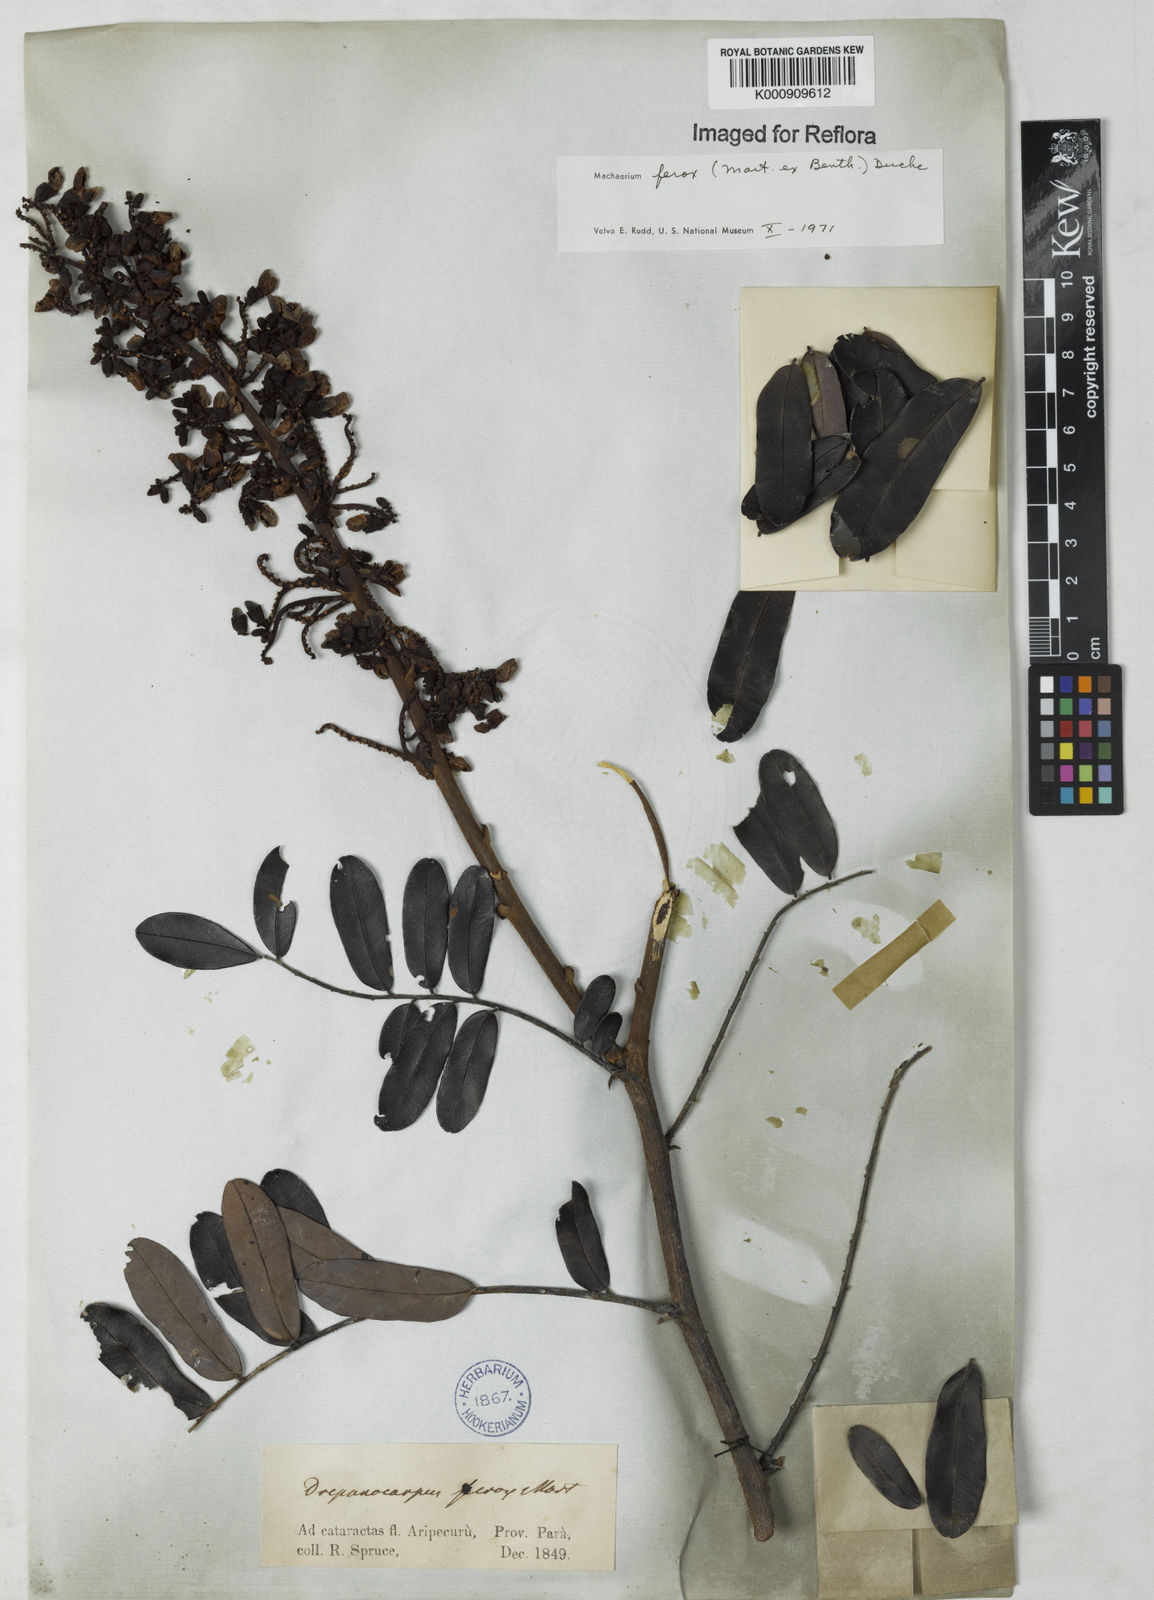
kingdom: Plantae
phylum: Tracheophyta
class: Magnoliopsida
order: Fabales
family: Fabaceae
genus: Machaerium
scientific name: Machaerium ferox
